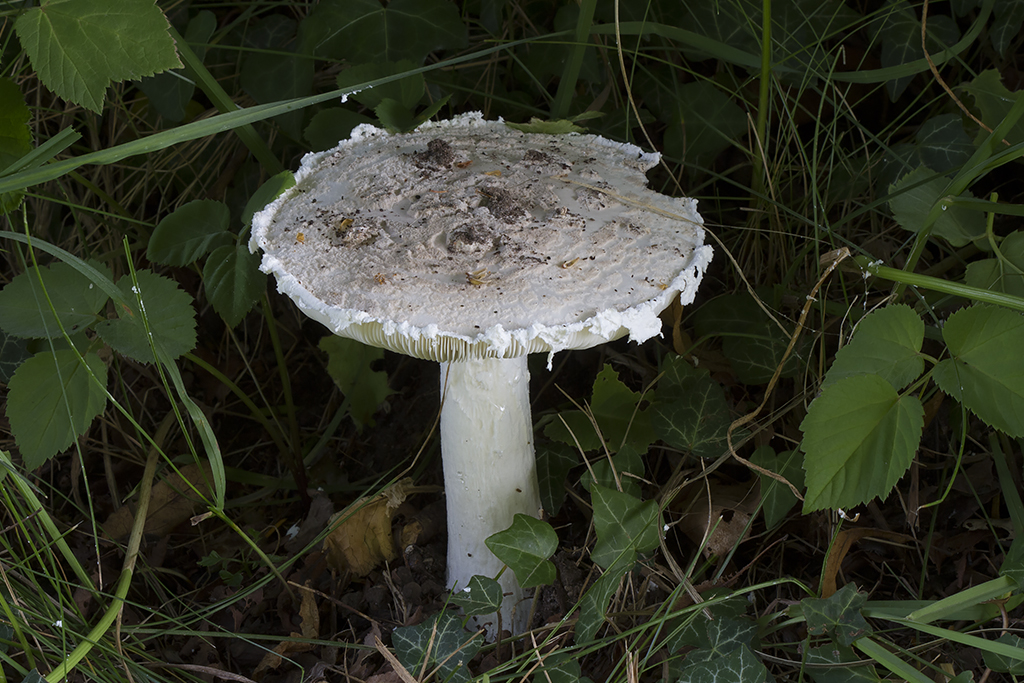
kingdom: Fungi
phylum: Basidiomycota
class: Agaricomycetes
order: Agaricales
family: Amanitaceae
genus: Amanita
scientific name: Amanita
